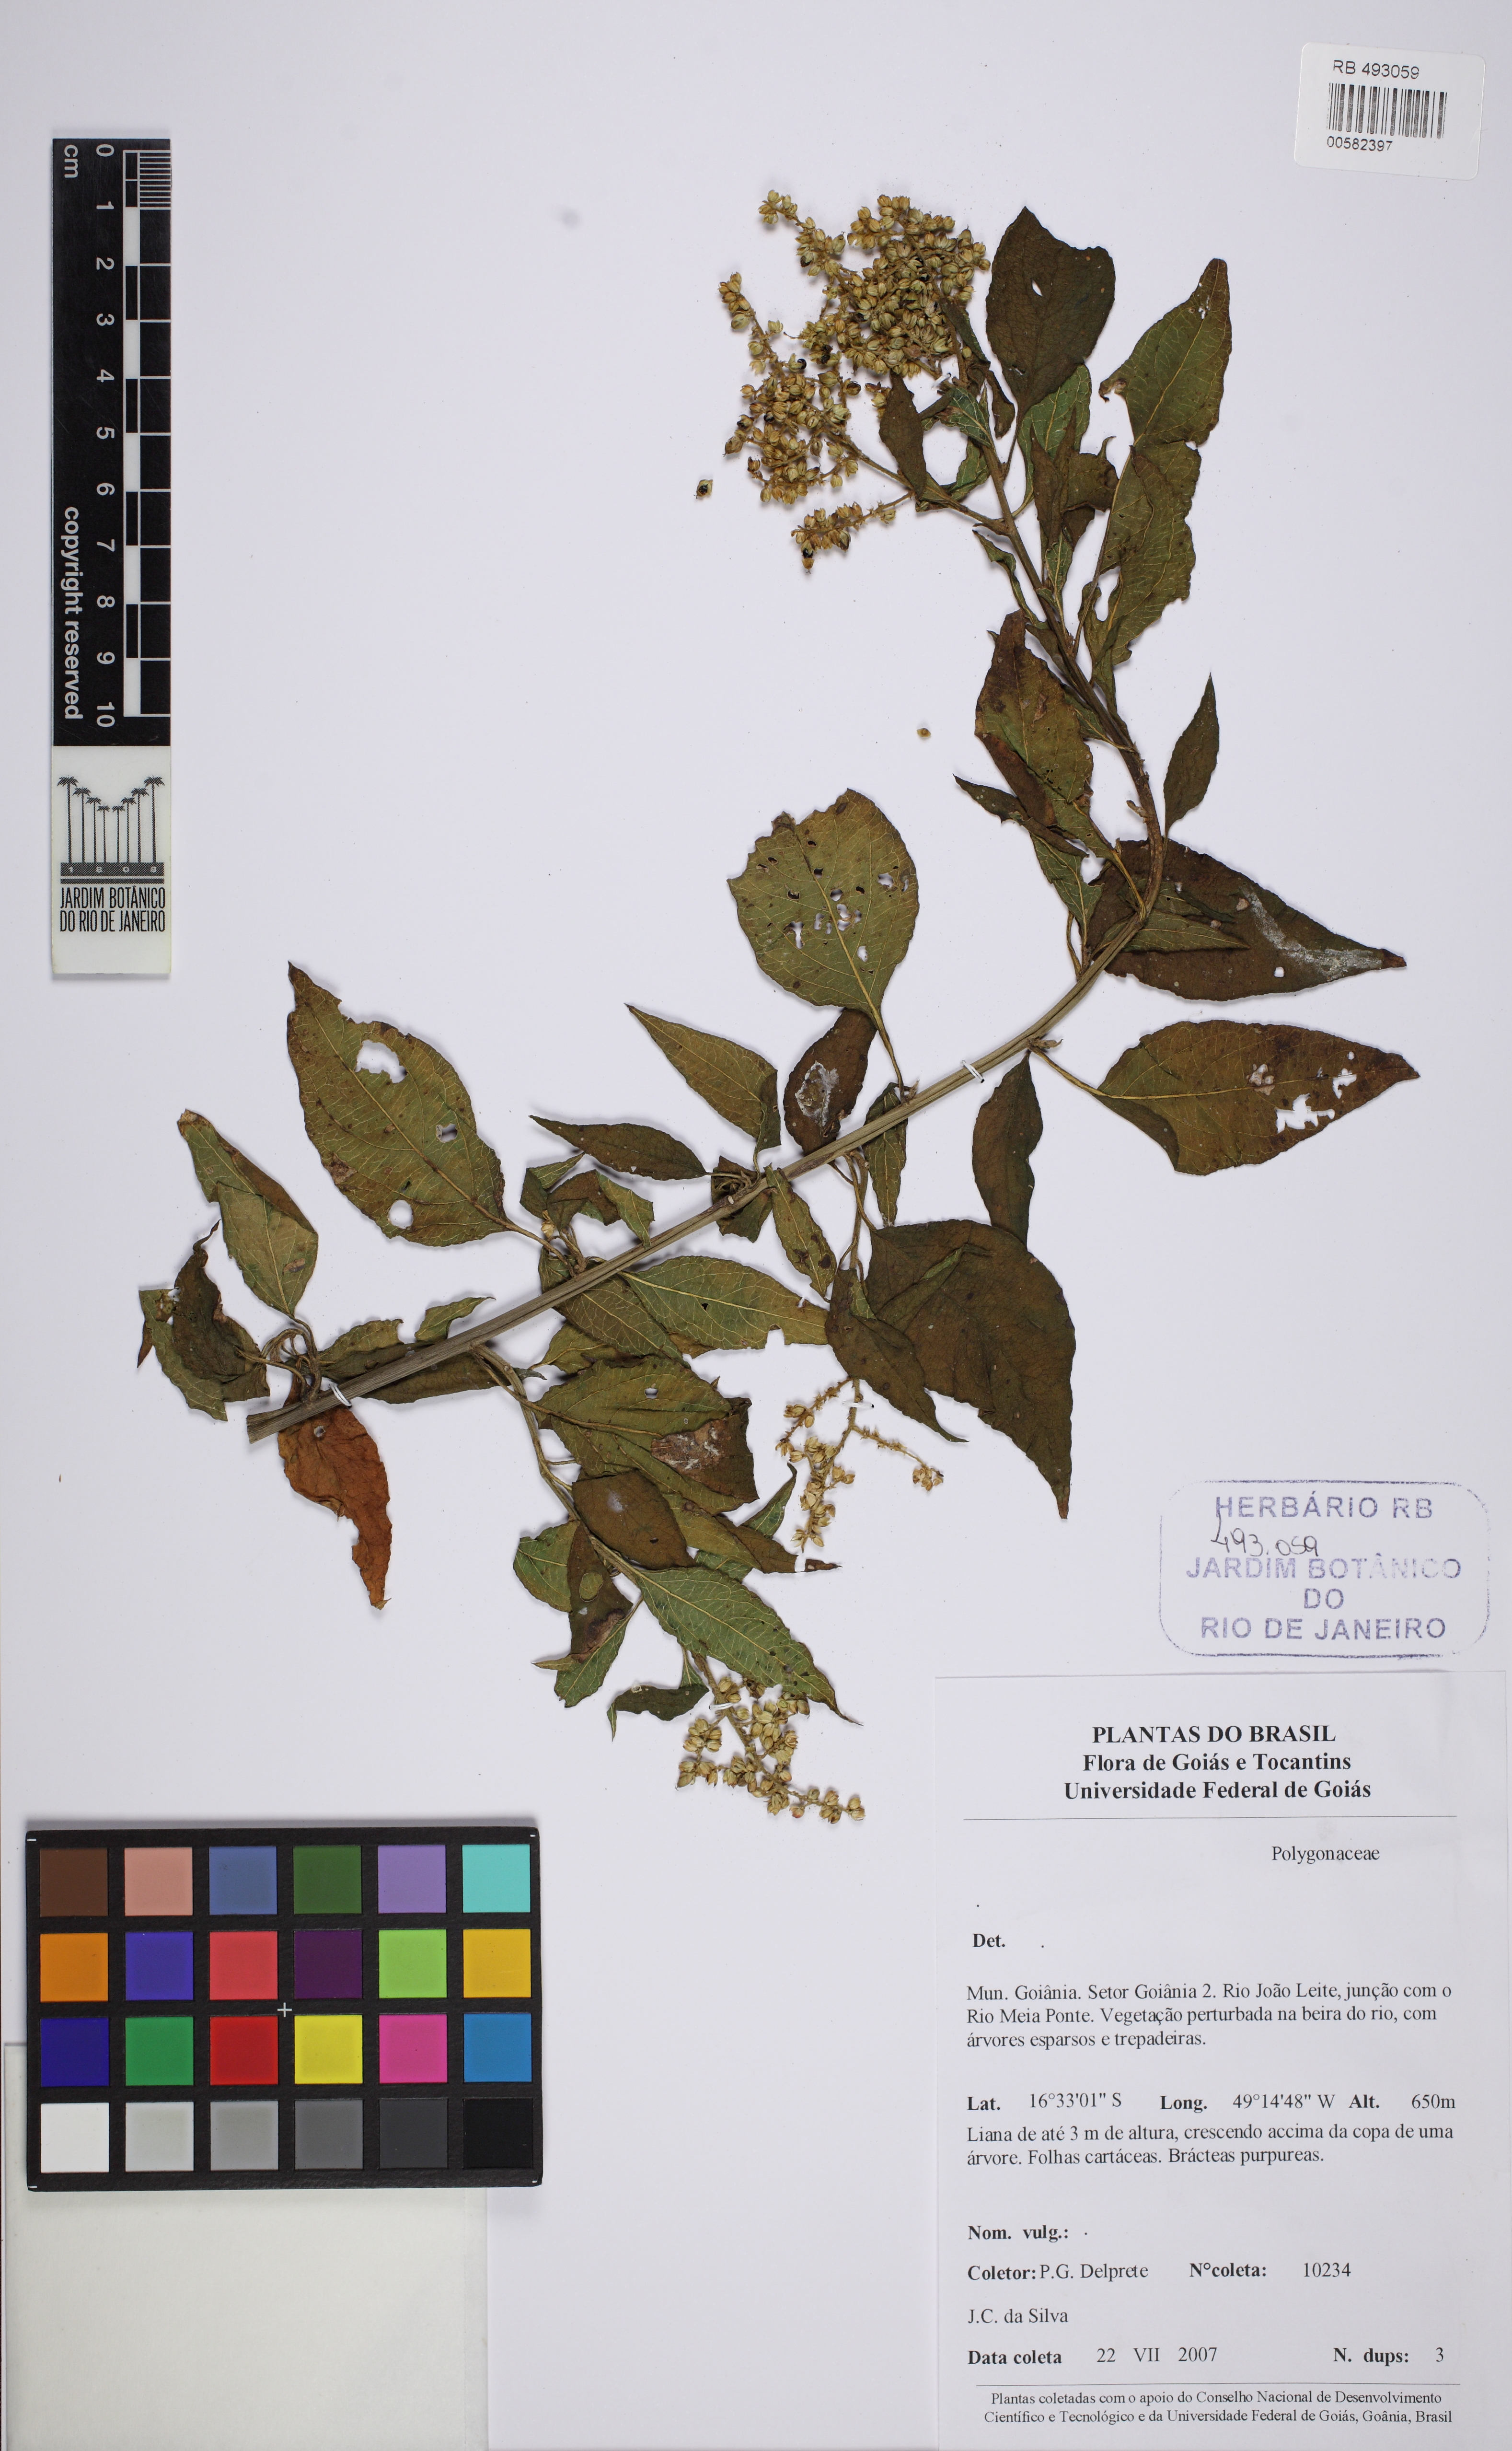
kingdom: Plantae
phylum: Tracheophyta
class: Magnoliopsida
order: Caryophyllales
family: Polygonaceae
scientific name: Polygonaceae
